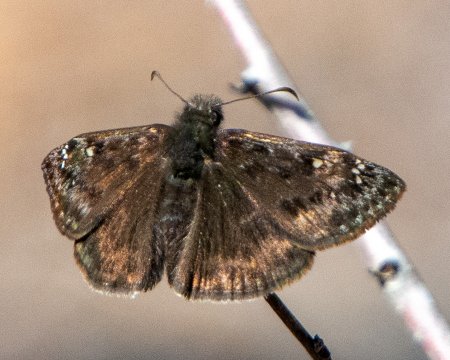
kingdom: Animalia
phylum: Arthropoda
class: Insecta
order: Lepidoptera
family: Hesperiidae
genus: Gesta
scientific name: Gesta
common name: Juvenal's Duskywing
